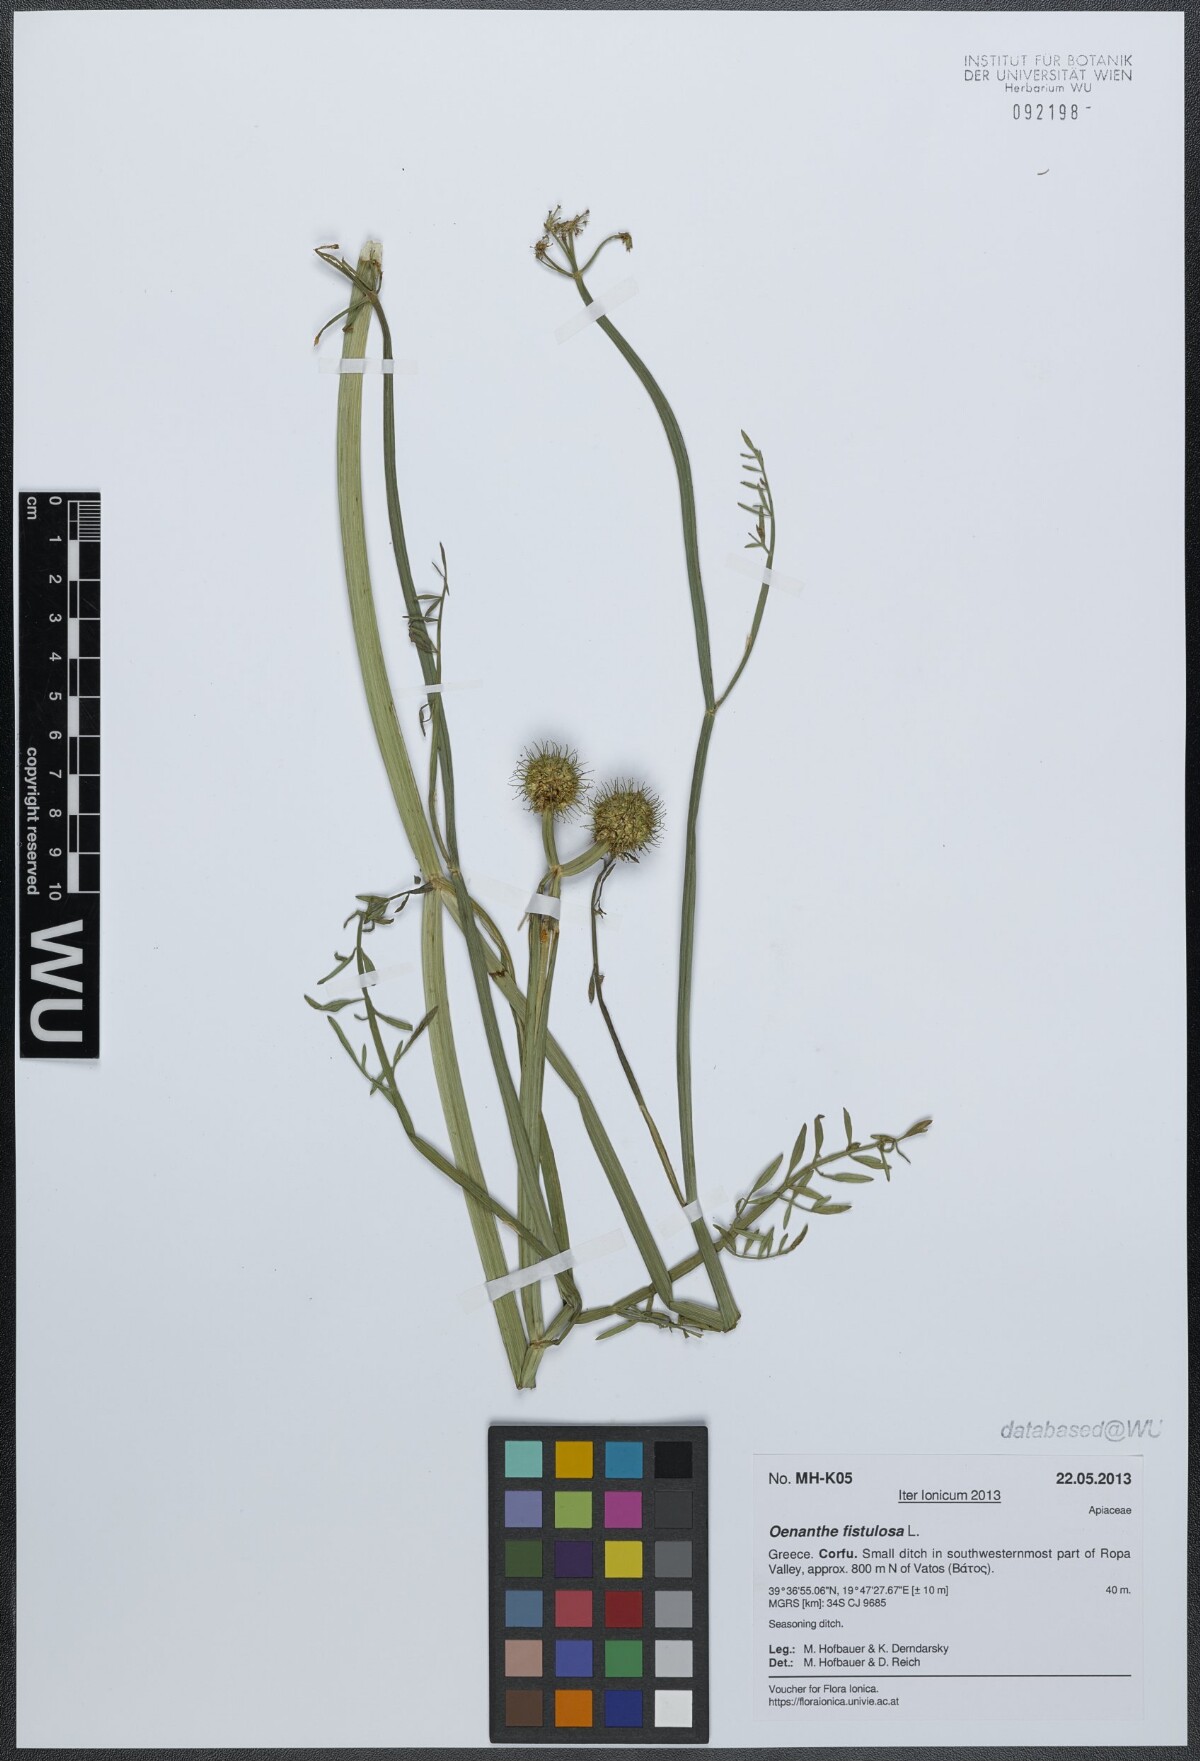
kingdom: Plantae
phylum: Tracheophyta
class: Magnoliopsida
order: Apiales
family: Apiaceae
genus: Oenanthe
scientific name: Oenanthe fistulosa
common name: Tubular water-dropwort
